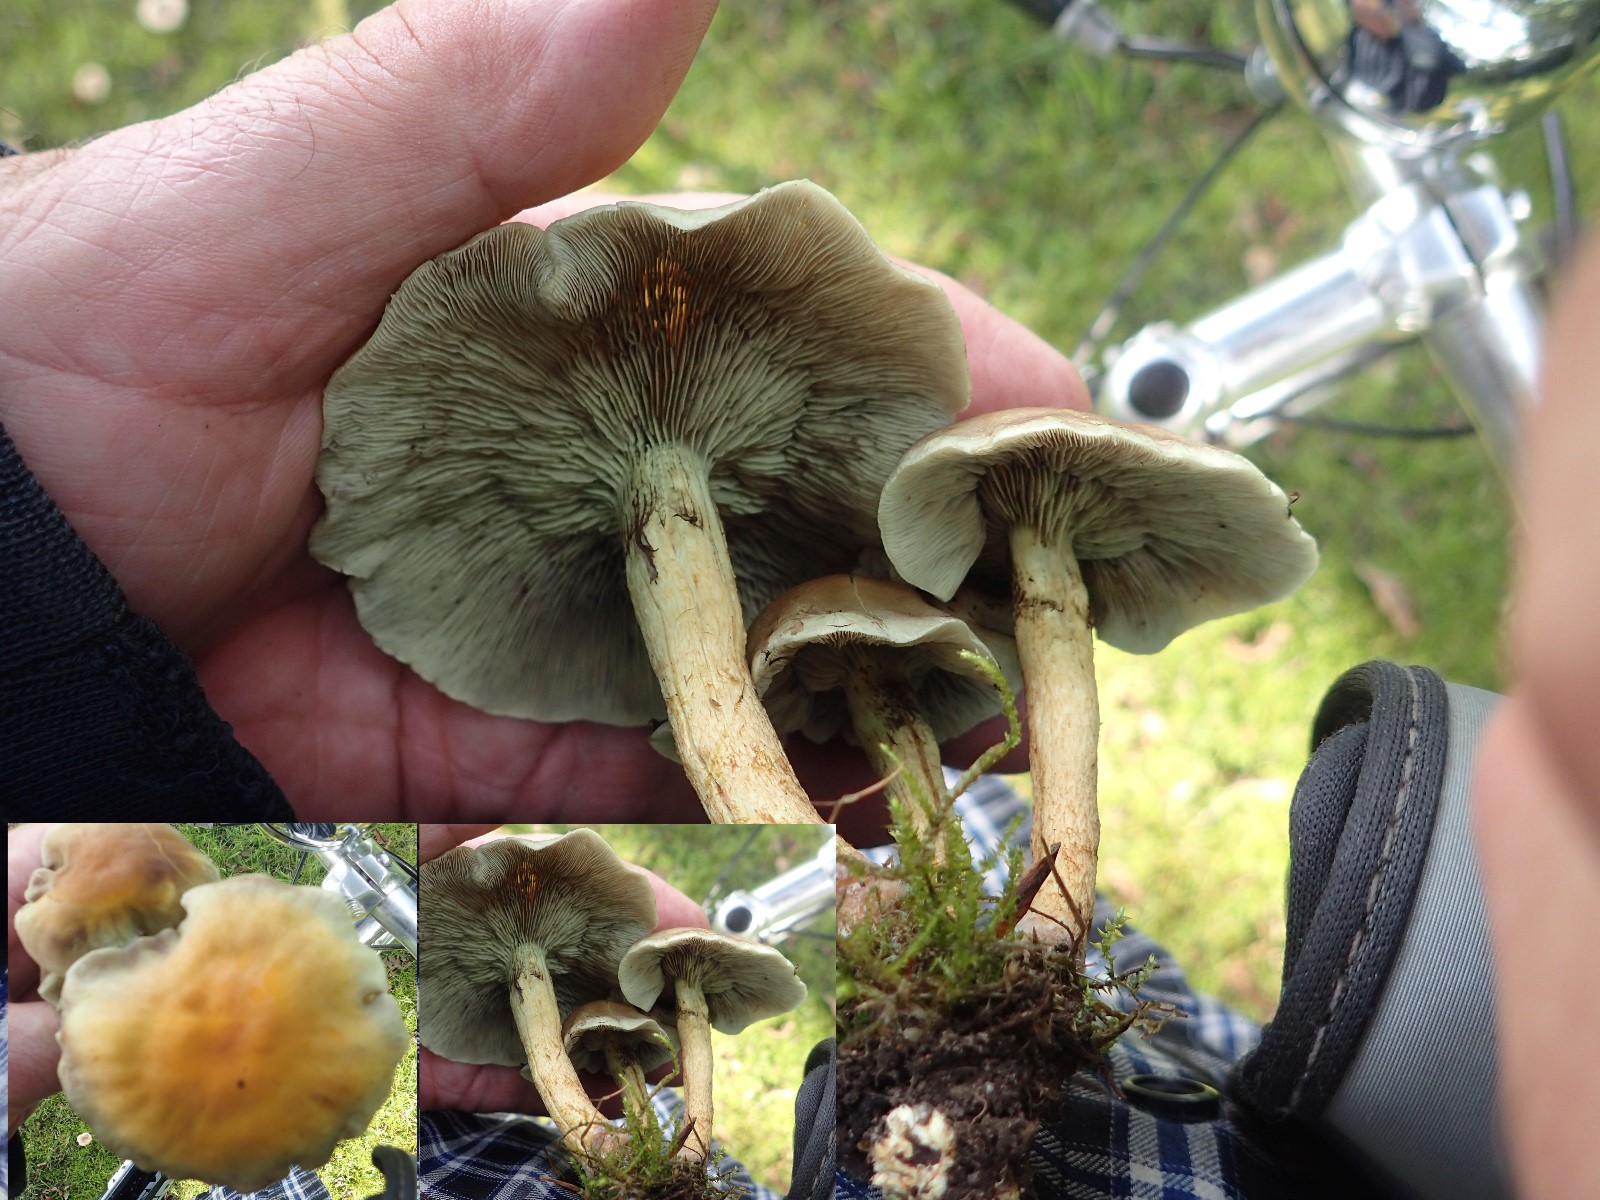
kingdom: Fungi
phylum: Basidiomycota
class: Agaricomycetes
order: Agaricales
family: Strophariaceae
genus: Hypholoma
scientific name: Hypholoma fasciculare
